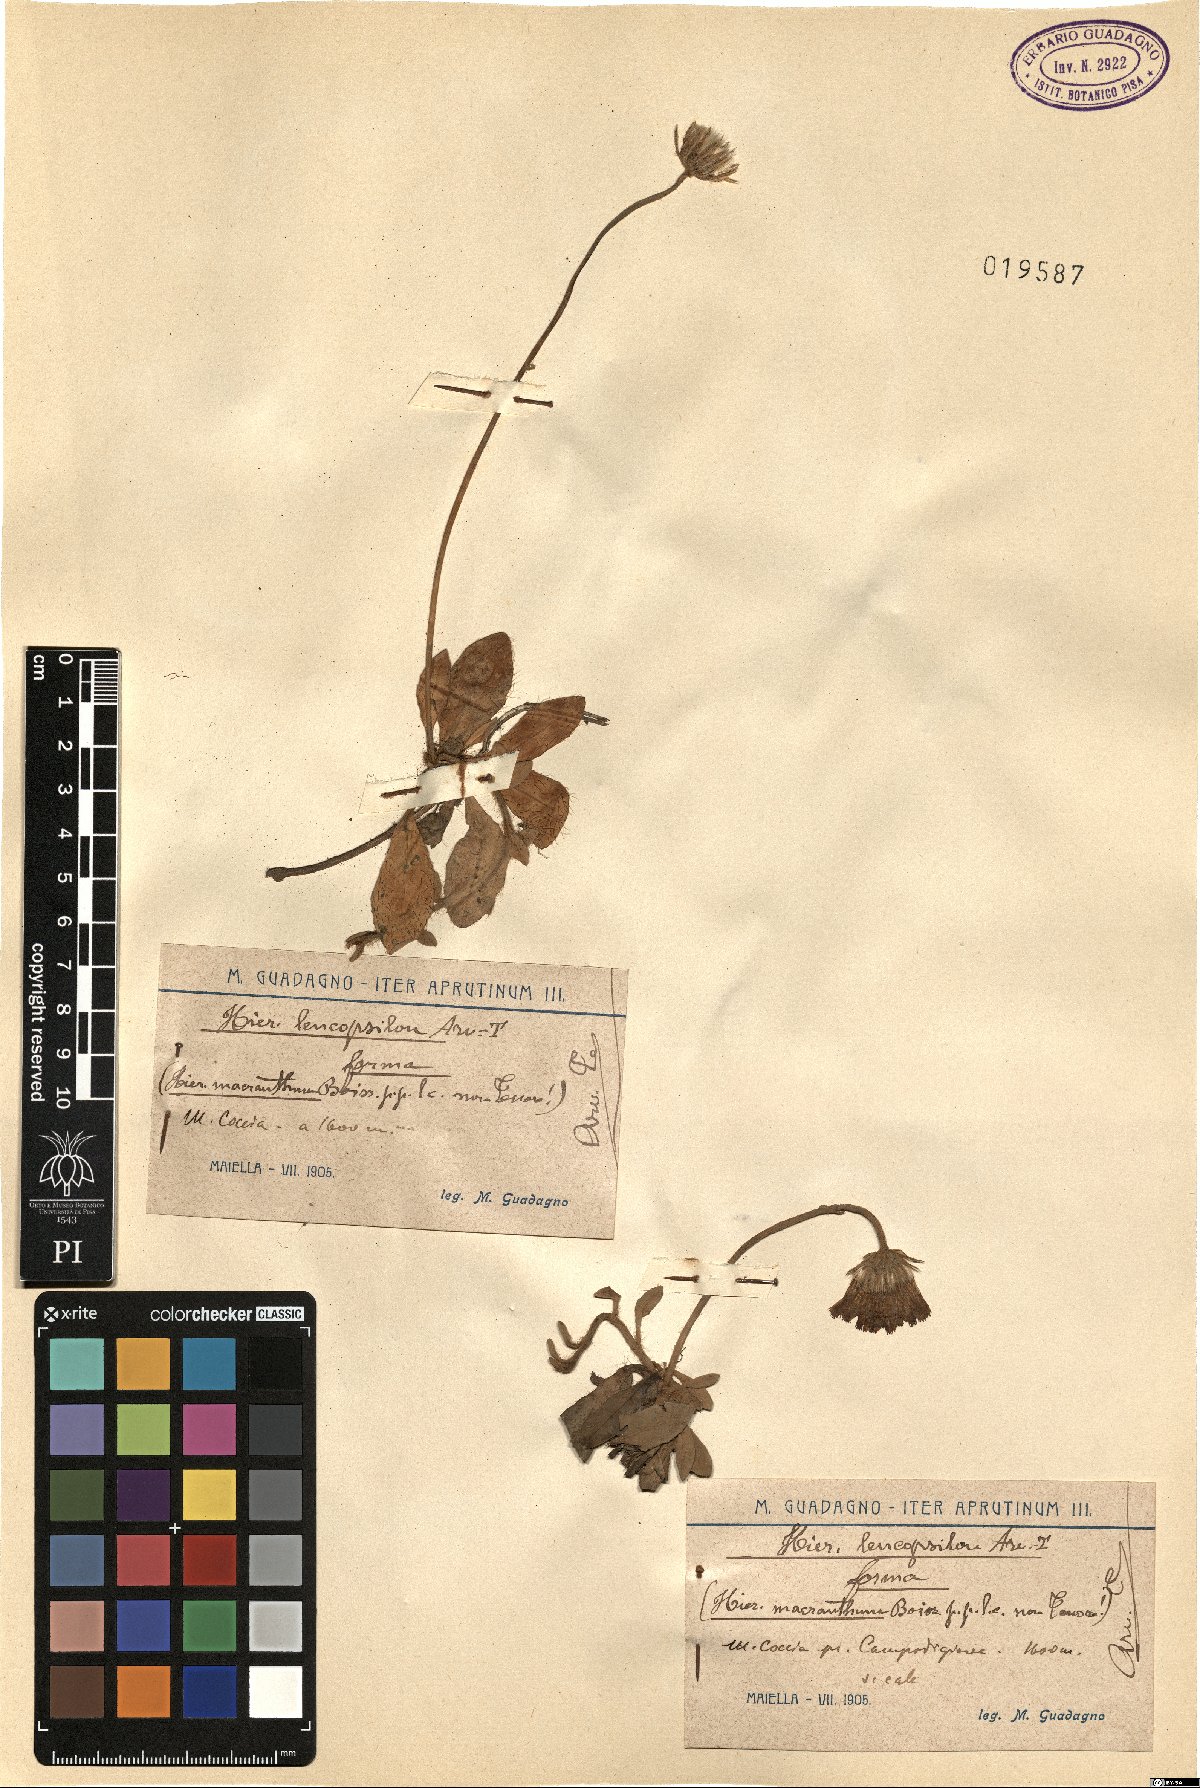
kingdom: Plantae
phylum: Tracheophyta
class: Magnoliopsida
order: Asterales
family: Asteraceae
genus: Pilosella
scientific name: Pilosella leucopsilon
